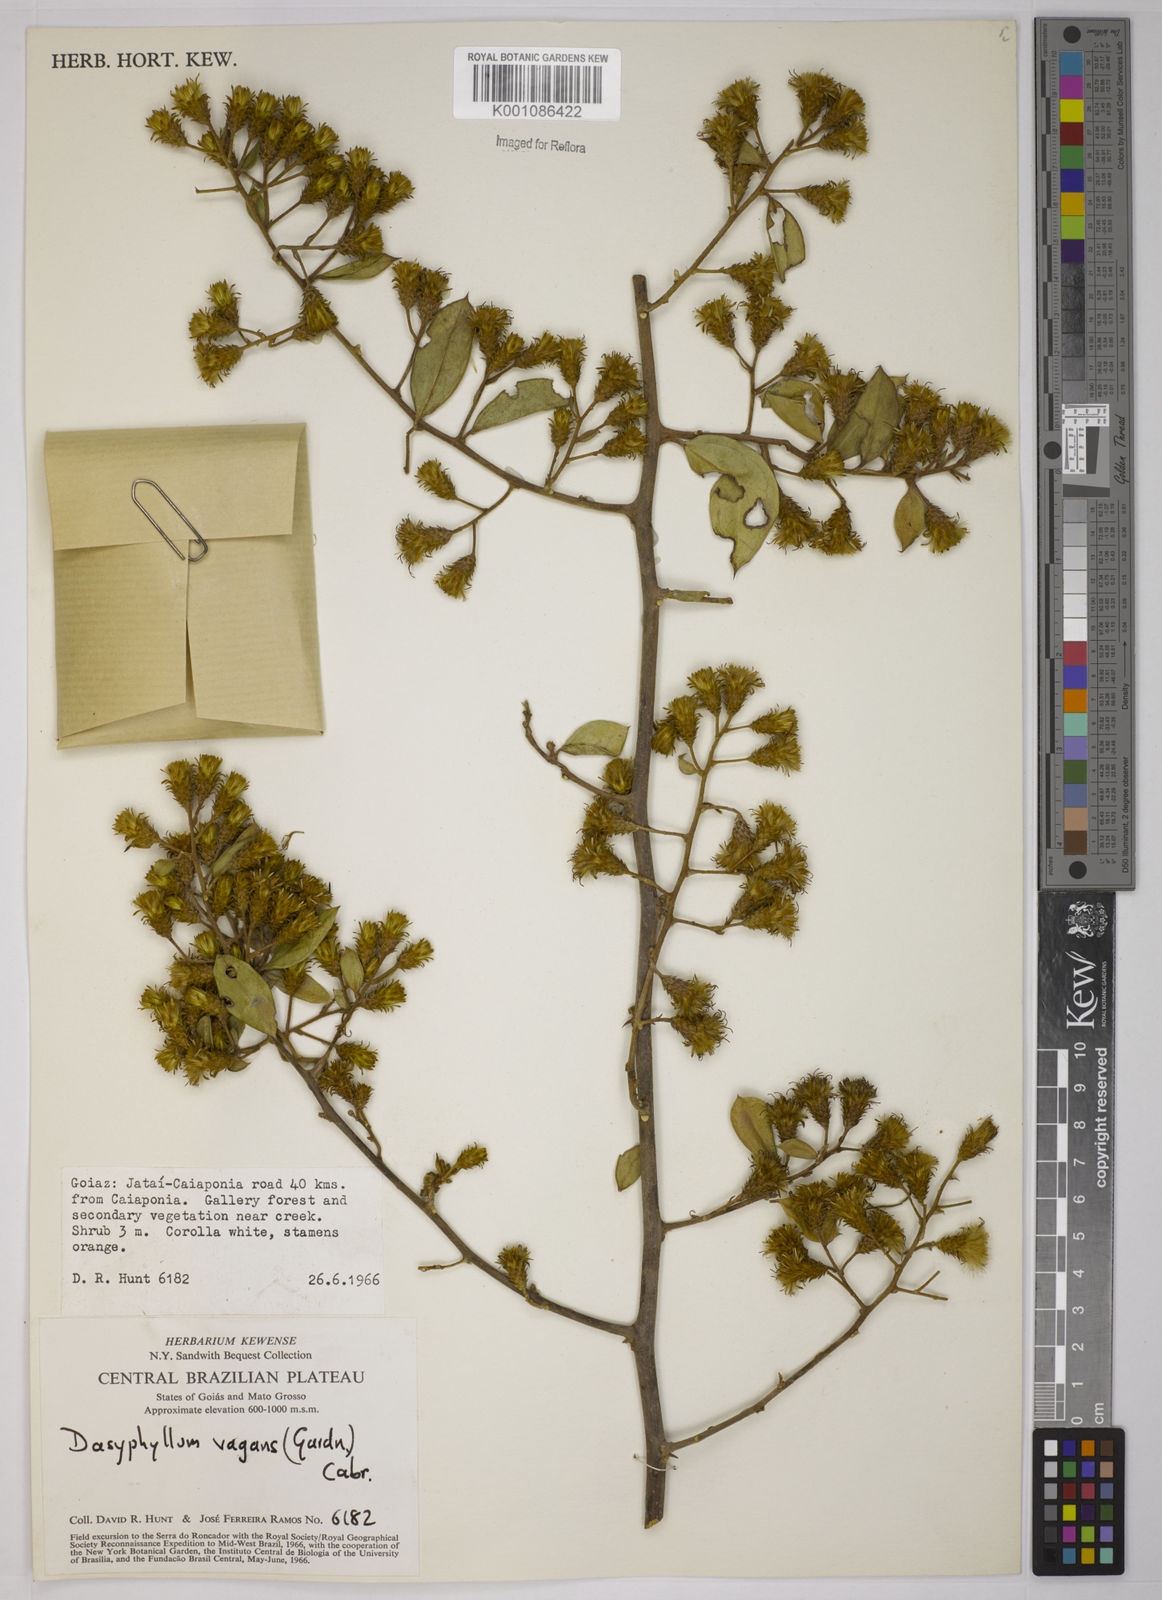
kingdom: Plantae
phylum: Tracheophyta
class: Magnoliopsida
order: Asterales
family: Asteraceae
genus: Dasyphyllum
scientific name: Dasyphyllum vagans
